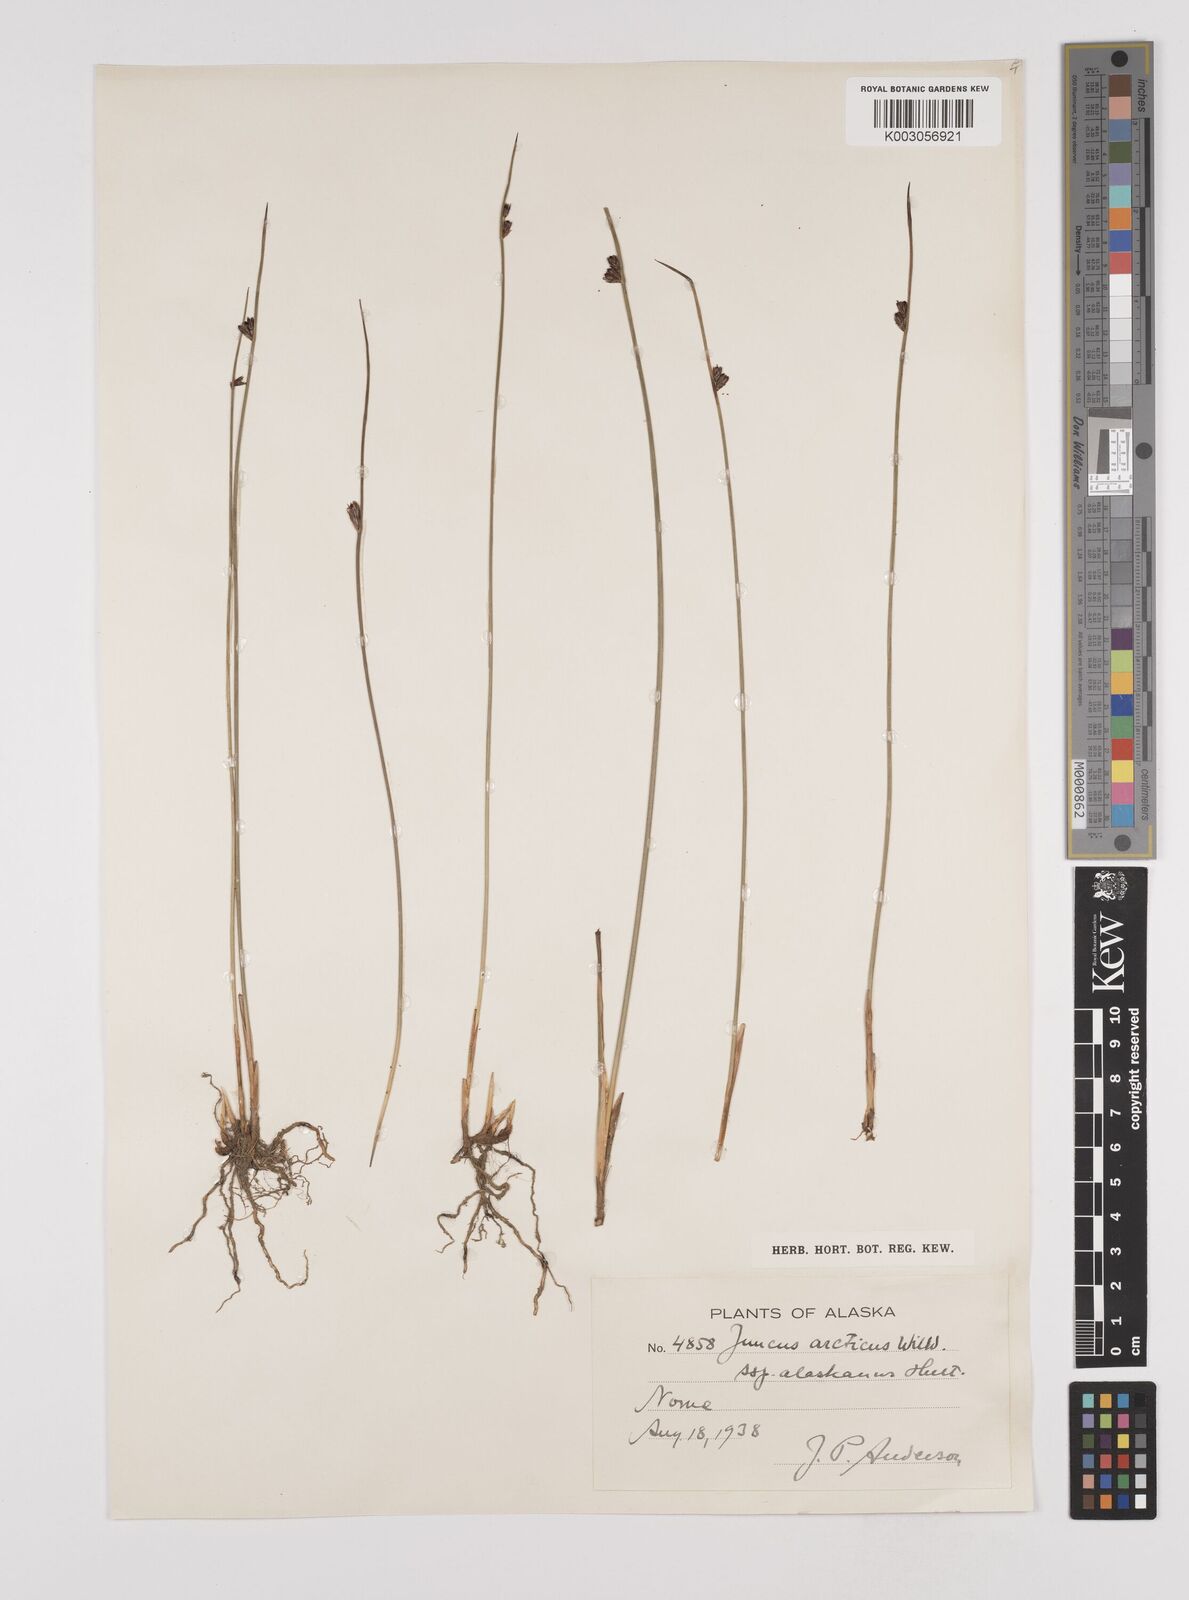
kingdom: Plantae
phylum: Tracheophyta
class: Liliopsida
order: Poales
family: Juncaceae
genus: Juncus
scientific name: Juncus arcticus
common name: Arctic rush
